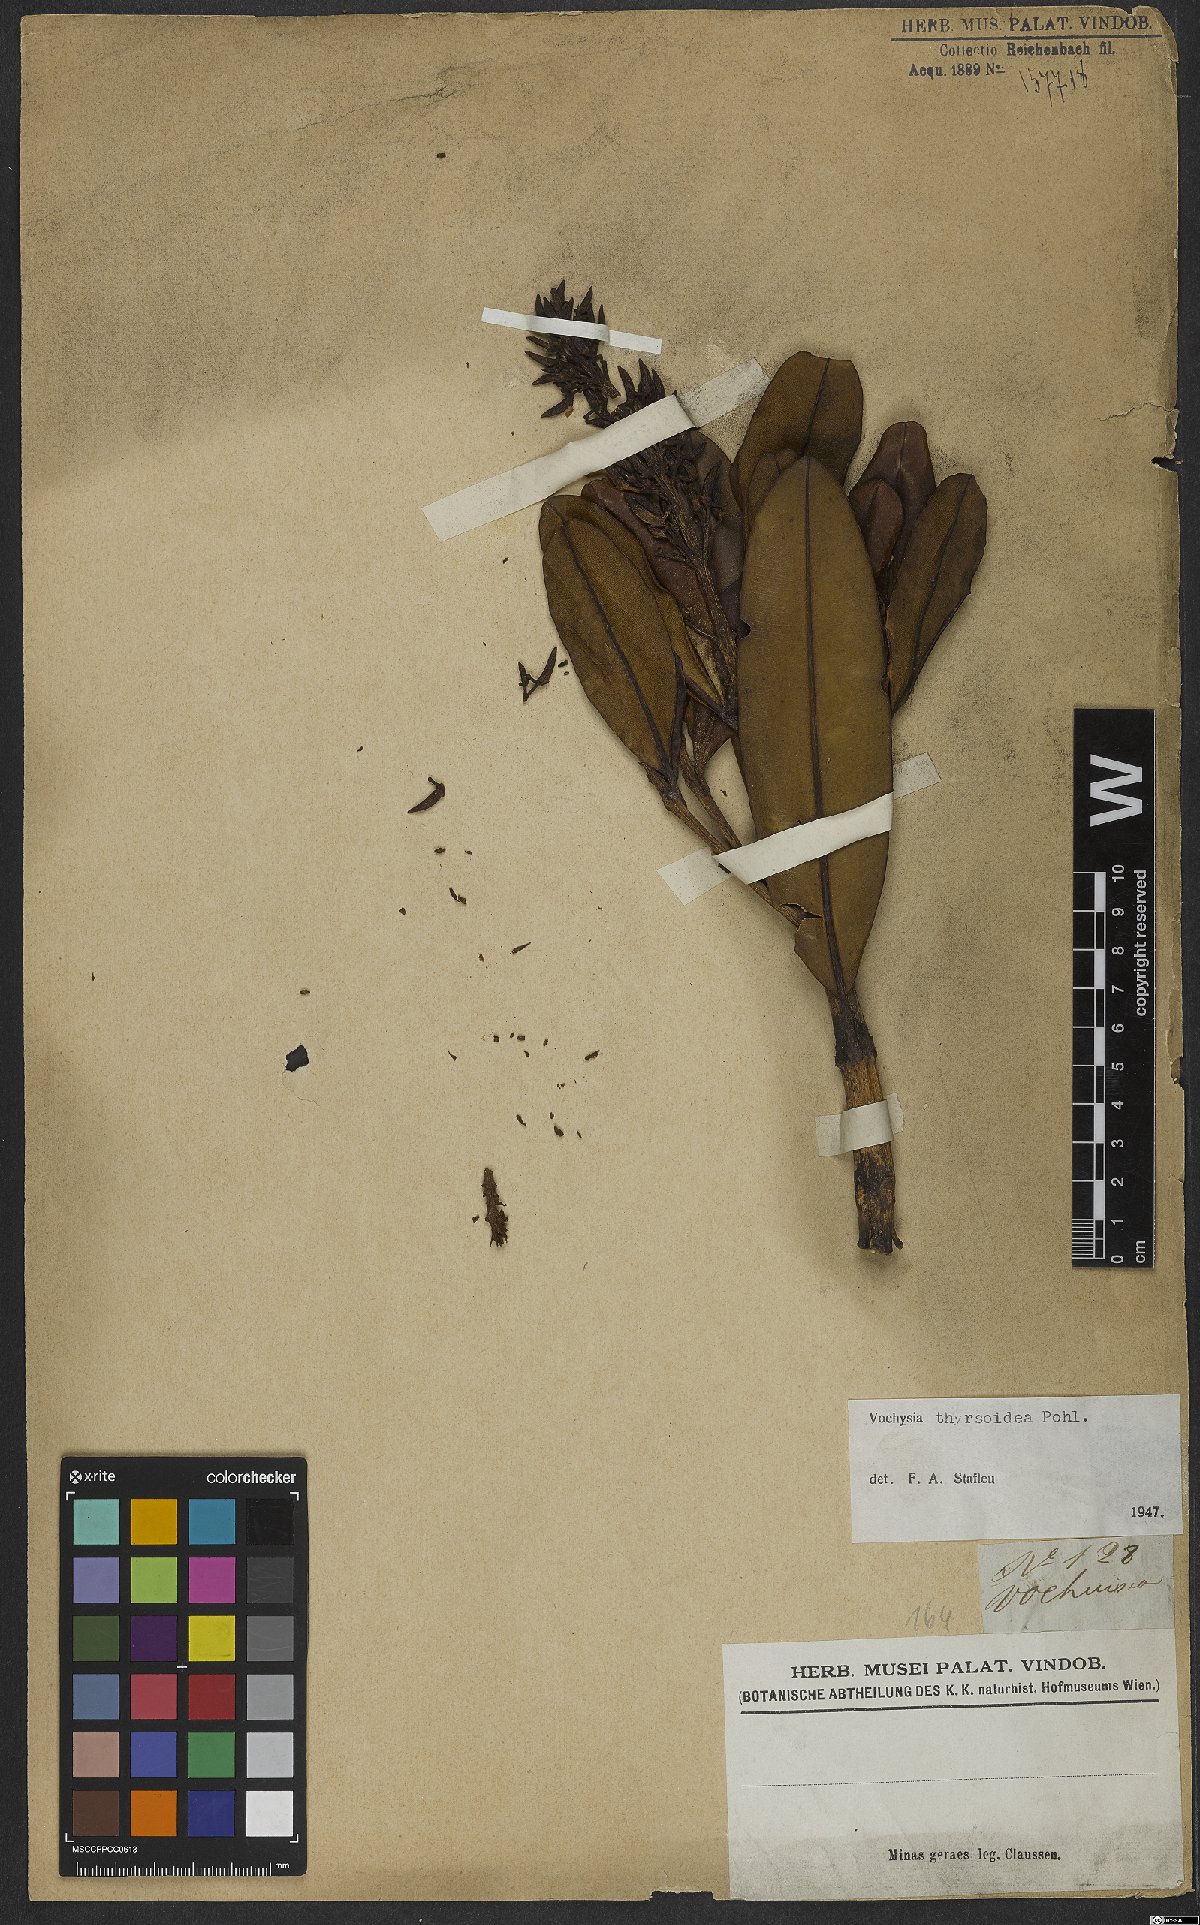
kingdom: Plantae
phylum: Tracheophyta
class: Magnoliopsida
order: Myrtales
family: Vochysiaceae
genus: Vochysia
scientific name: Vochysia thyrsoidea
